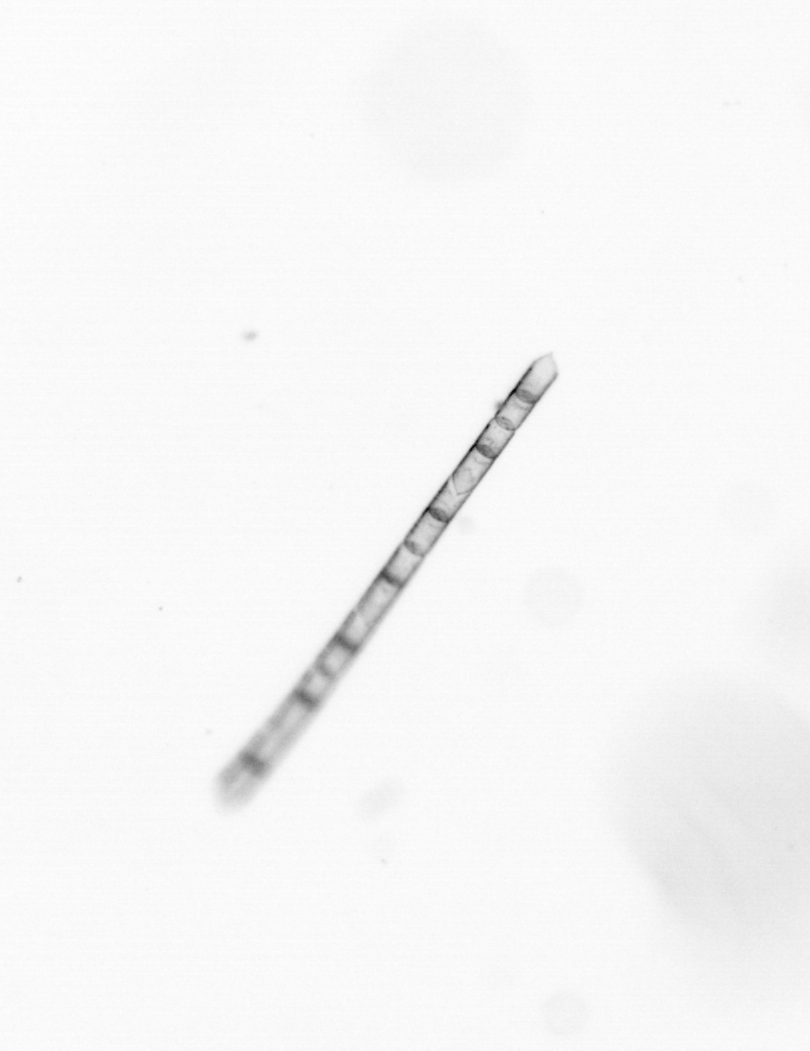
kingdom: Chromista
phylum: Ochrophyta
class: Bacillariophyceae
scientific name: Bacillariophyceae
